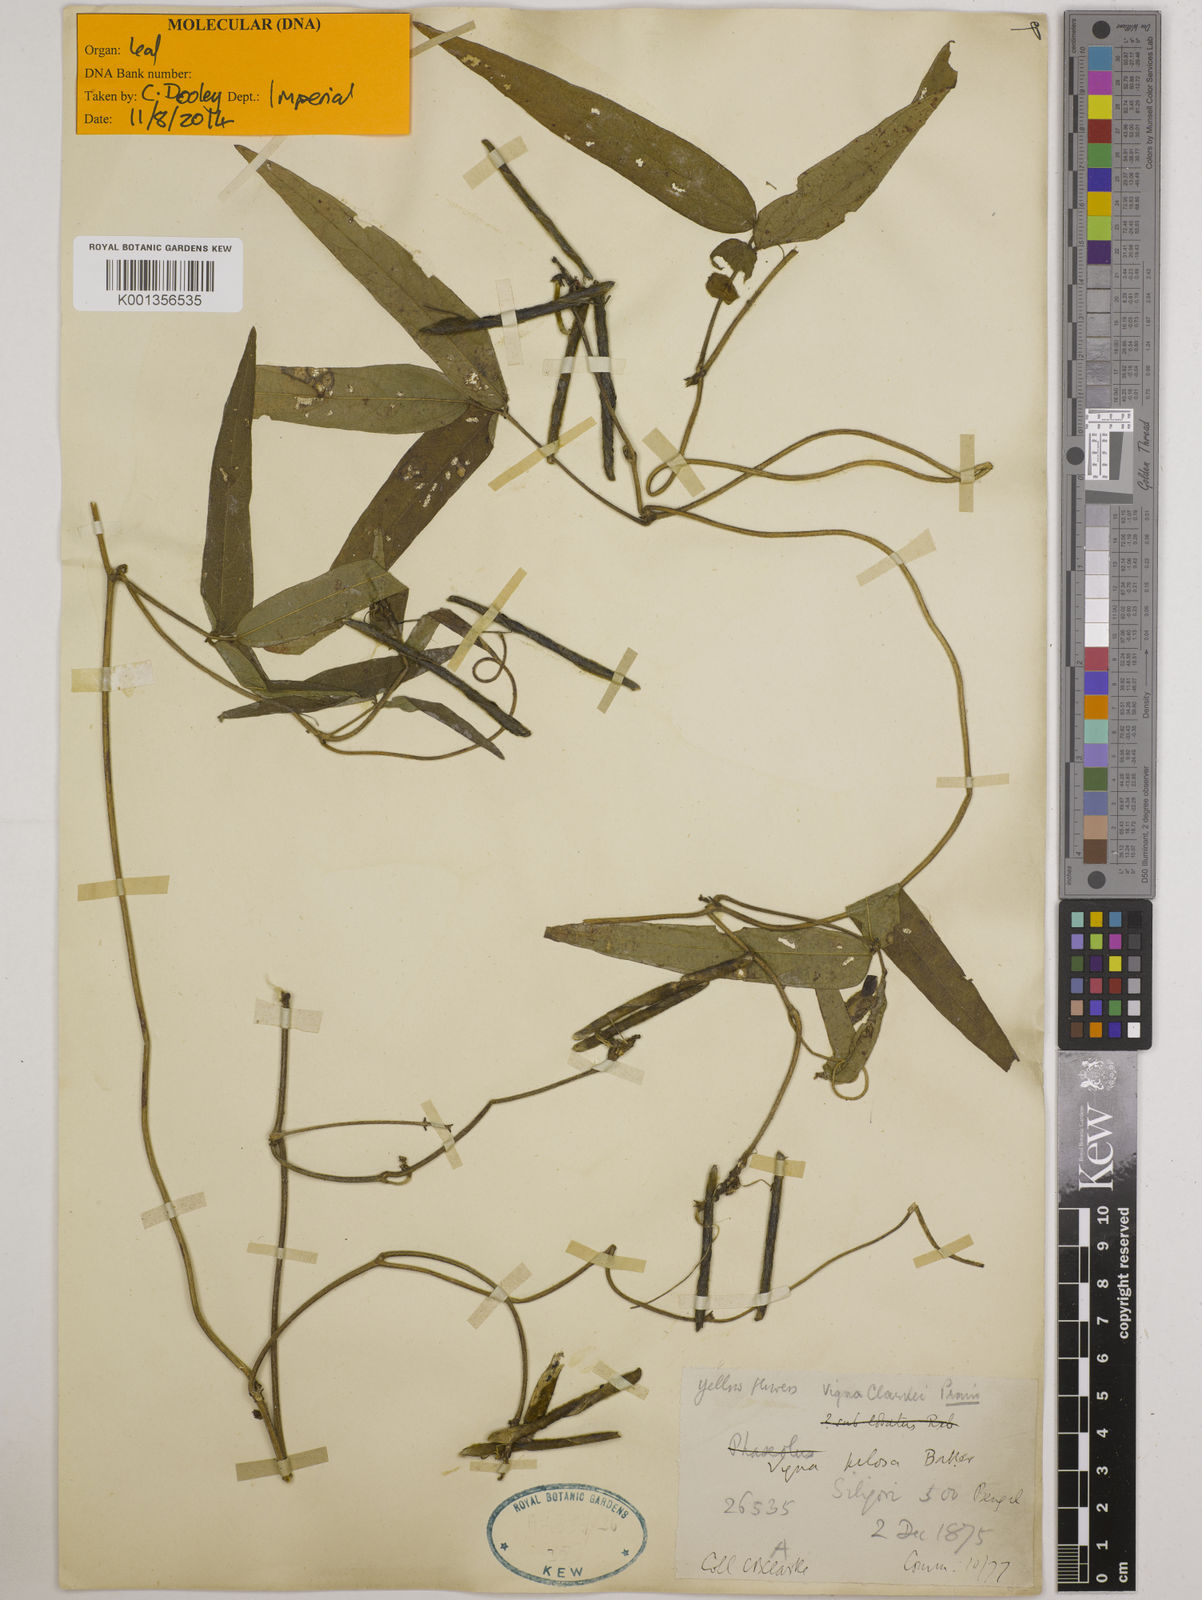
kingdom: Plantae
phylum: Tracheophyta
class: Magnoliopsida
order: Fabales
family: Fabaceae
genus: Vigna
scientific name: Vigna
